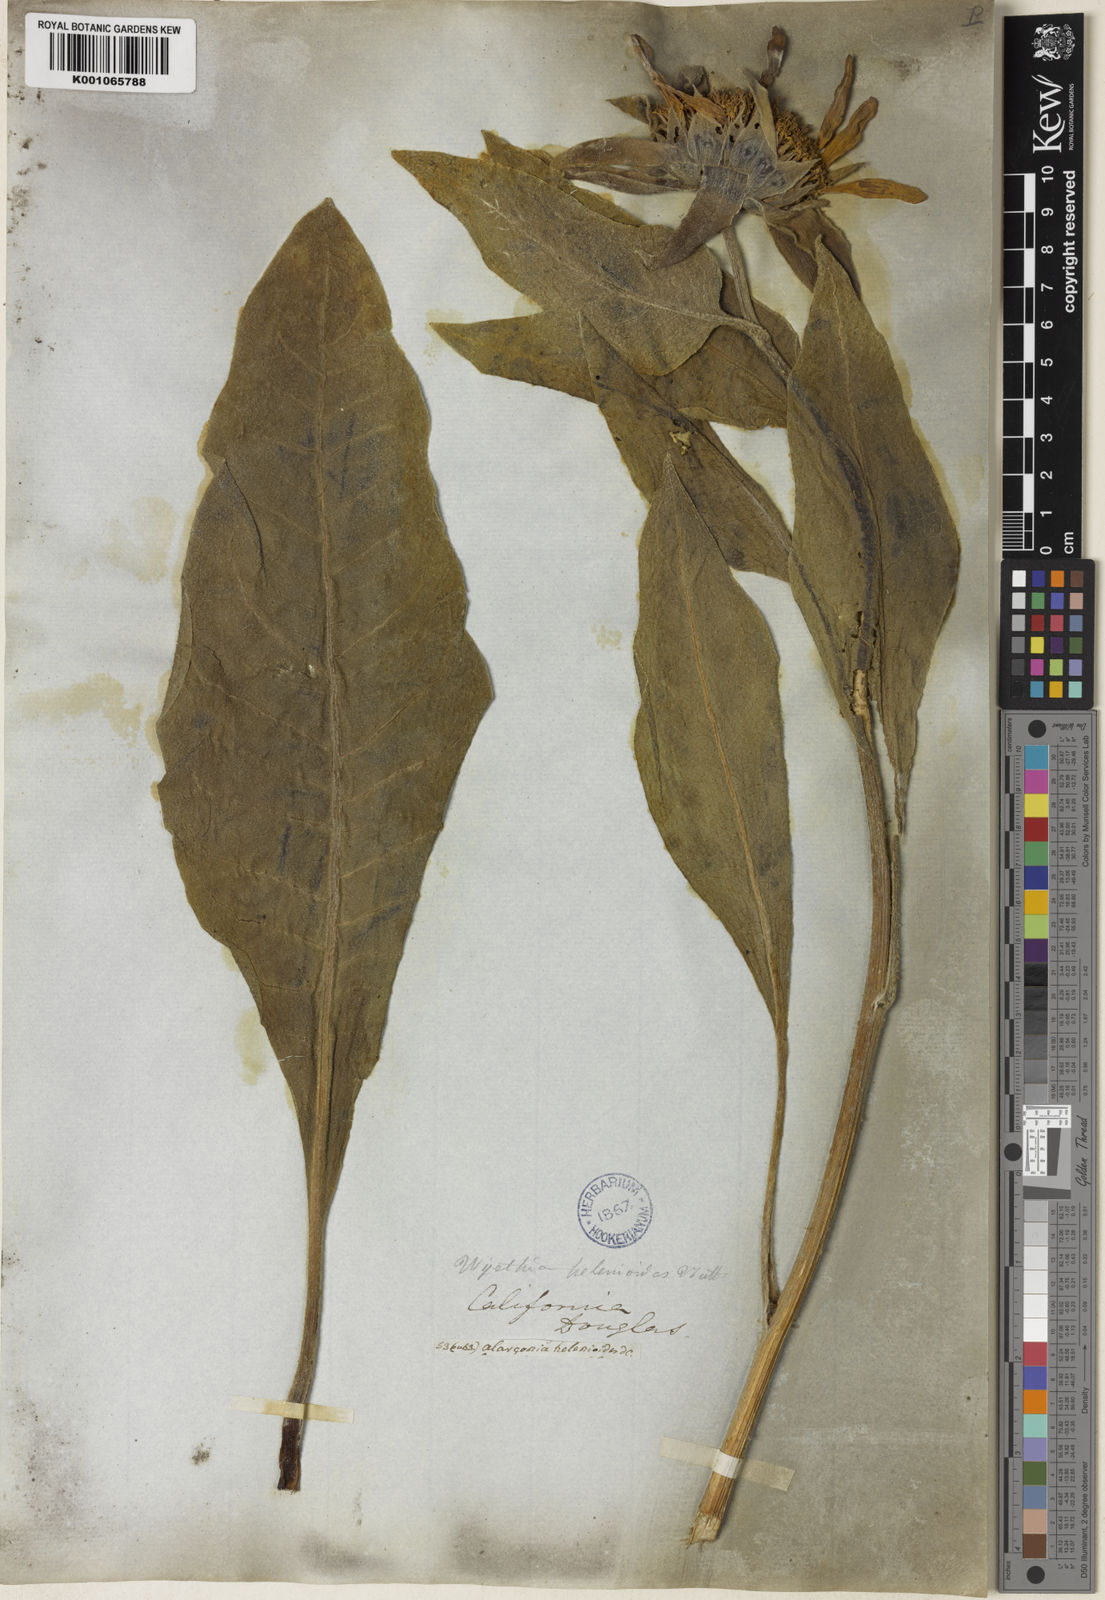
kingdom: Plantae
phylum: Tracheophyta
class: Magnoliopsida
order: Asterales
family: Asteraceae
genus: Wyethia
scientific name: Wyethia helenioides
